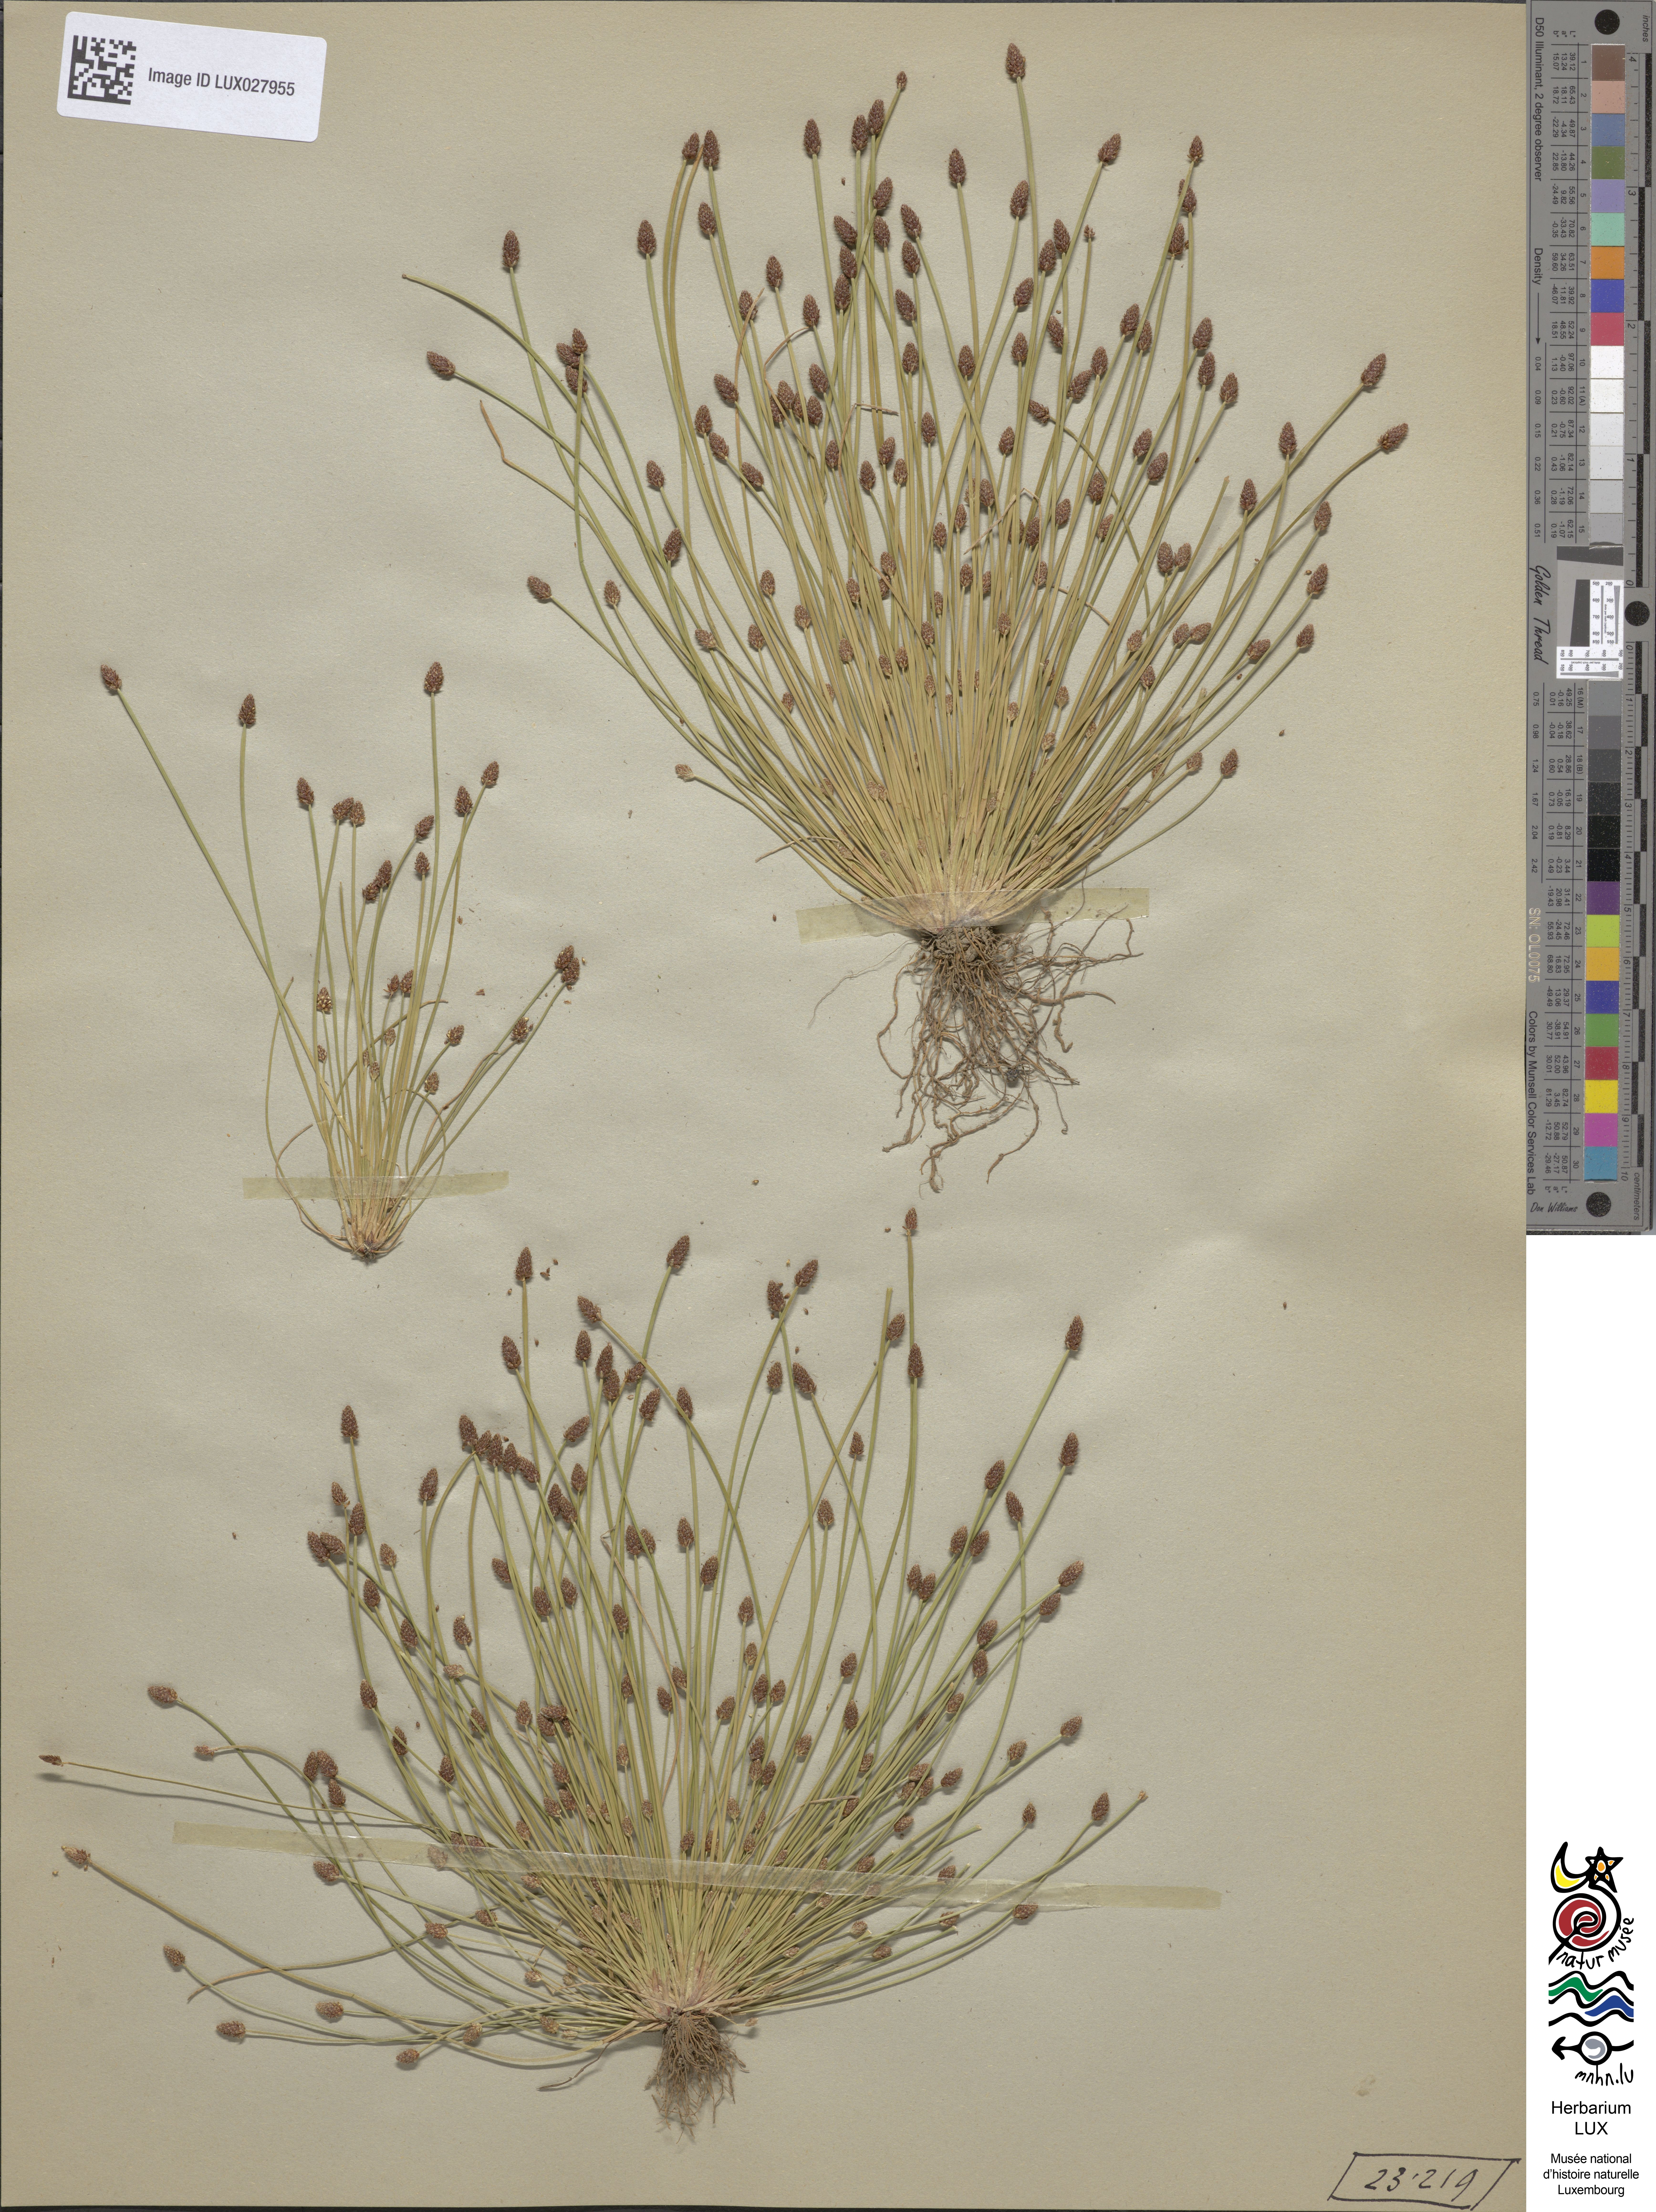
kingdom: Plantae
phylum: Tracheophyta
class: Liliopsida
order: Poales
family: Cyperaceae
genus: Eleocharis
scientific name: Eleocharis ovata
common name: Oval spike-rush
